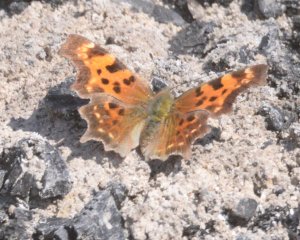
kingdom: Animalia
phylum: Arthropoda
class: Insecta
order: Lepidoptera
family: Nymphalidae
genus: Polygonia
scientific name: Polygonia faunus
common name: Green Comma
